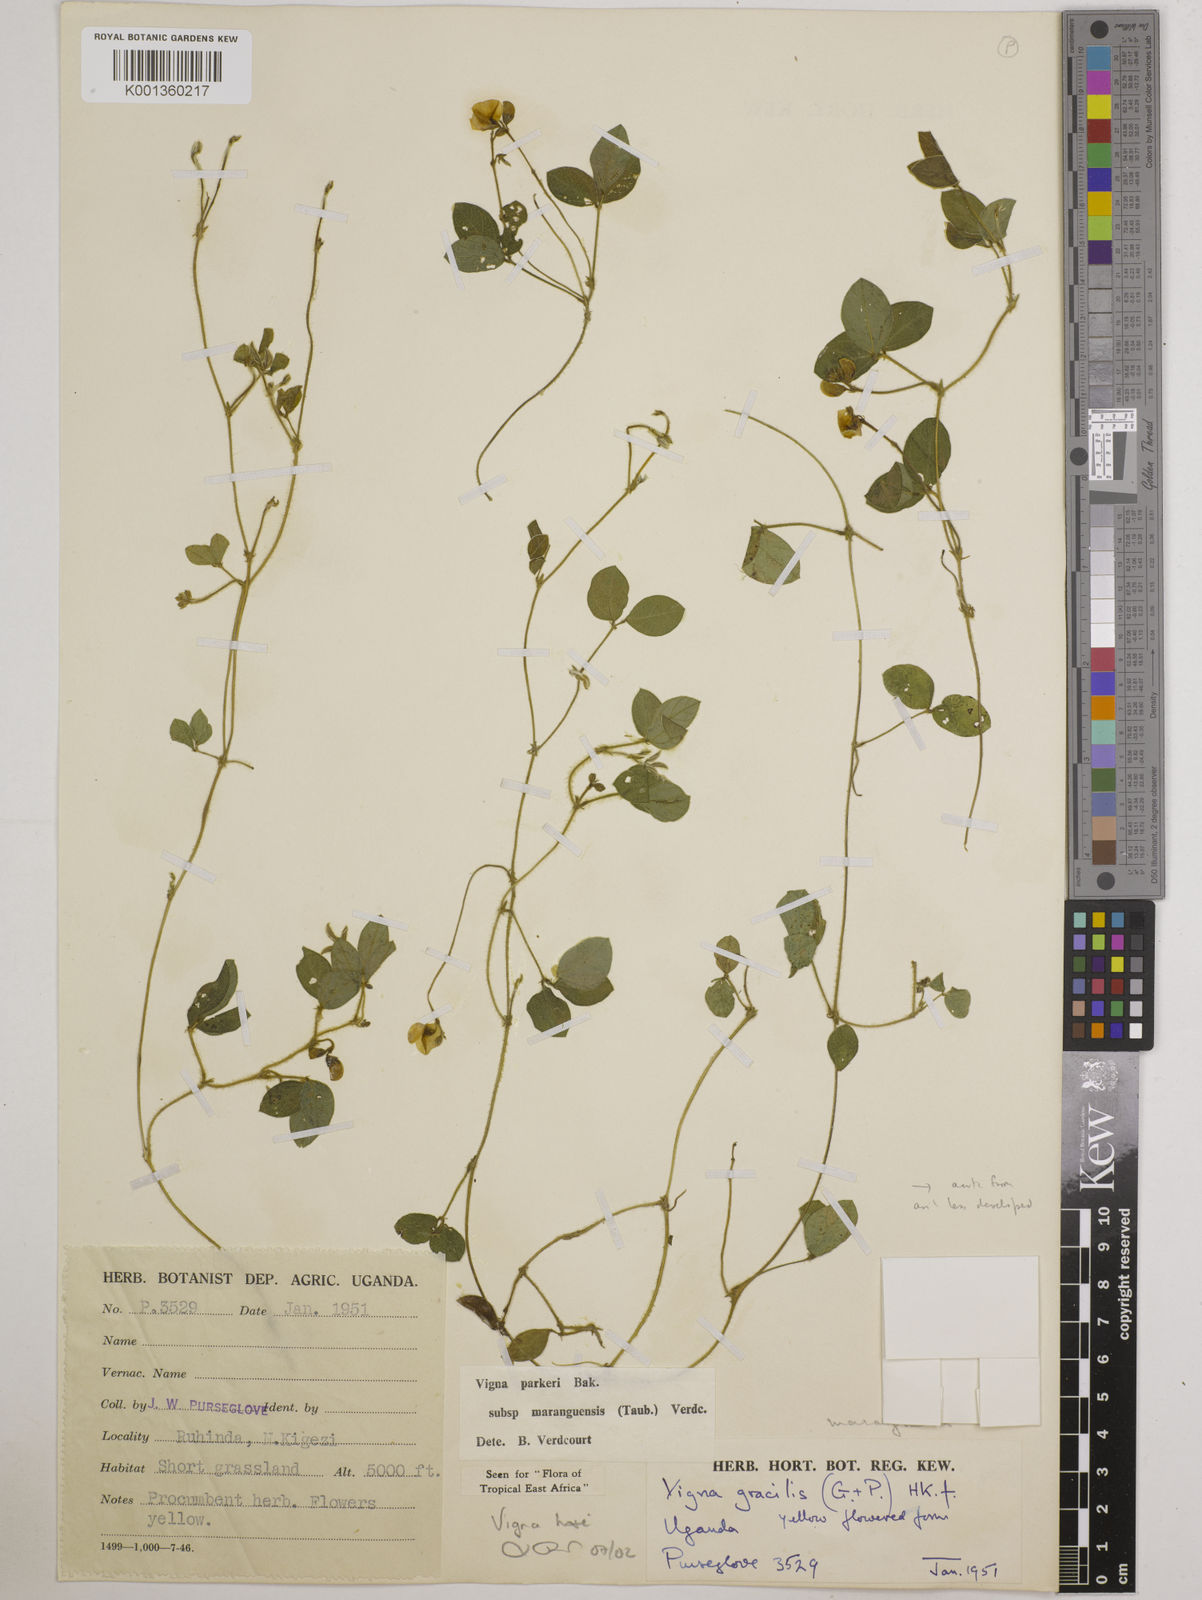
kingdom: Plantae
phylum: Tracheophyta
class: Magnoliopsida
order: Fabales
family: Fabaceae
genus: Vigna
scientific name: Vigna hosei
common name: Sarawak-bean
